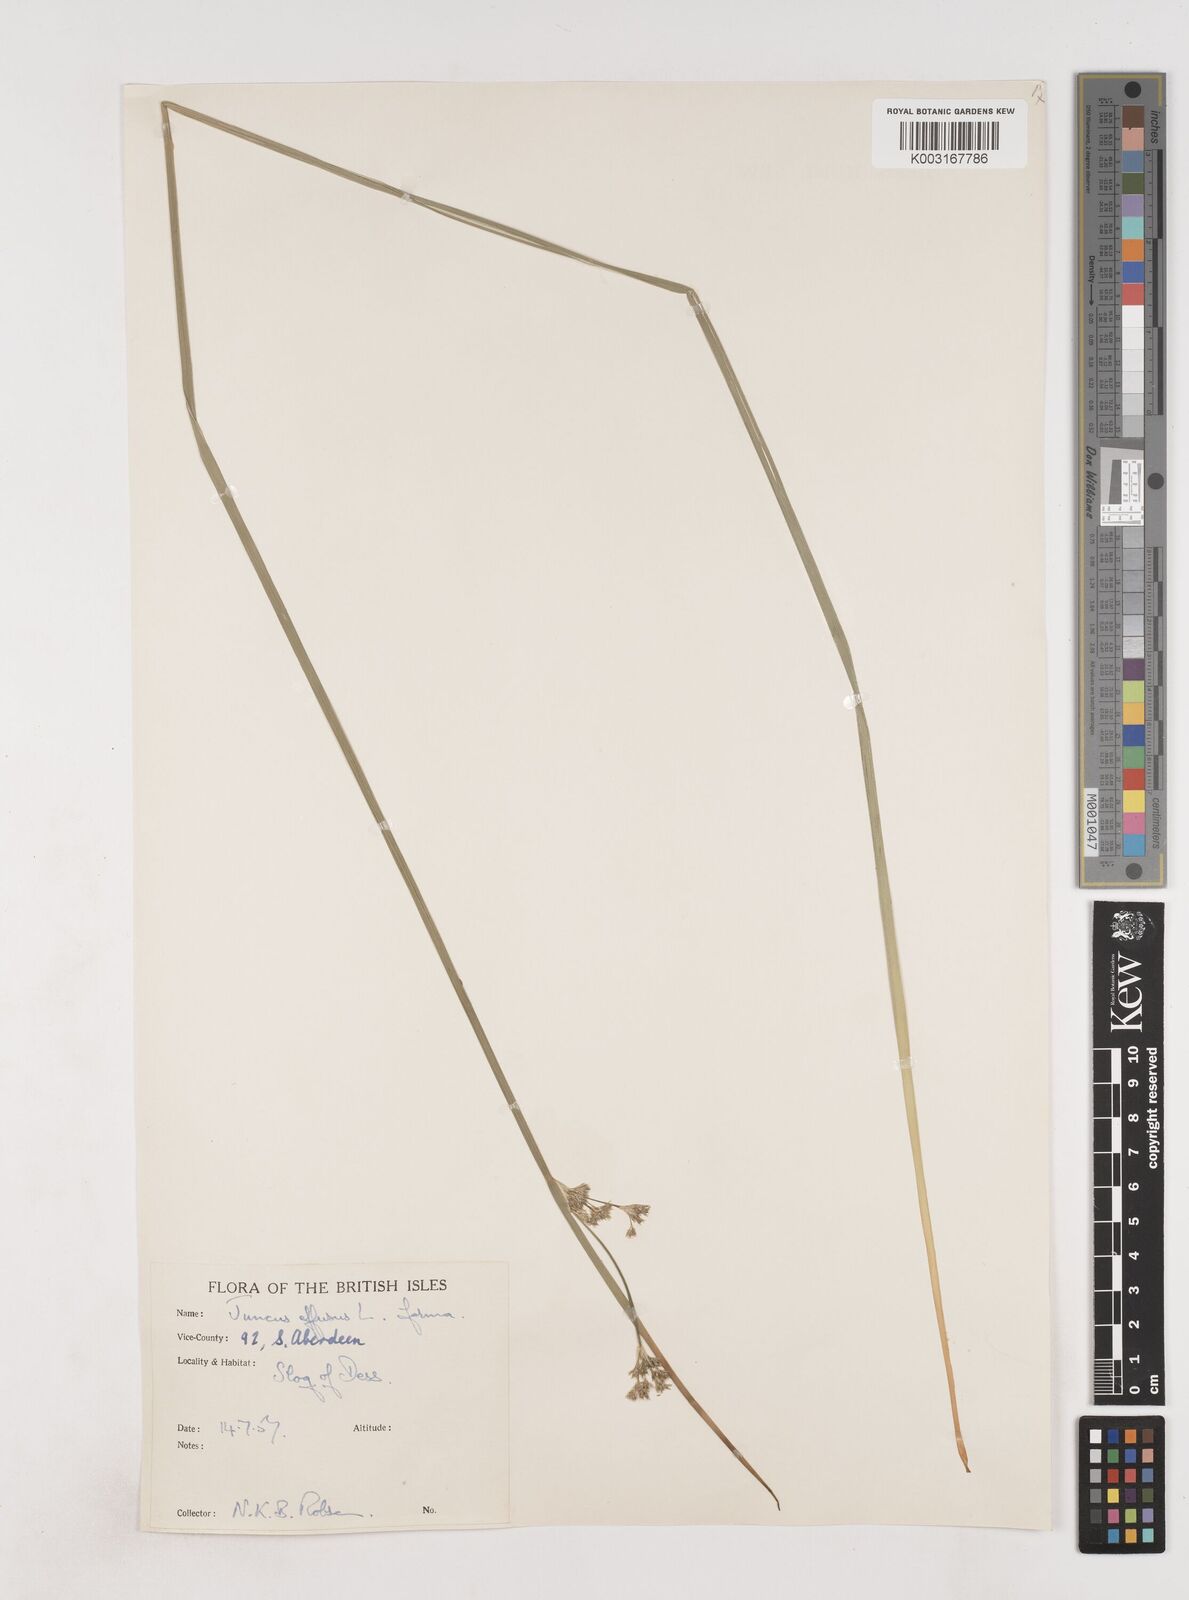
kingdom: Plantae
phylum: Tracheophyta
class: Liliopsida
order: Poales
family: Juncaceae
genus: Juncus
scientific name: Juncus effusus
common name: Soft rush
